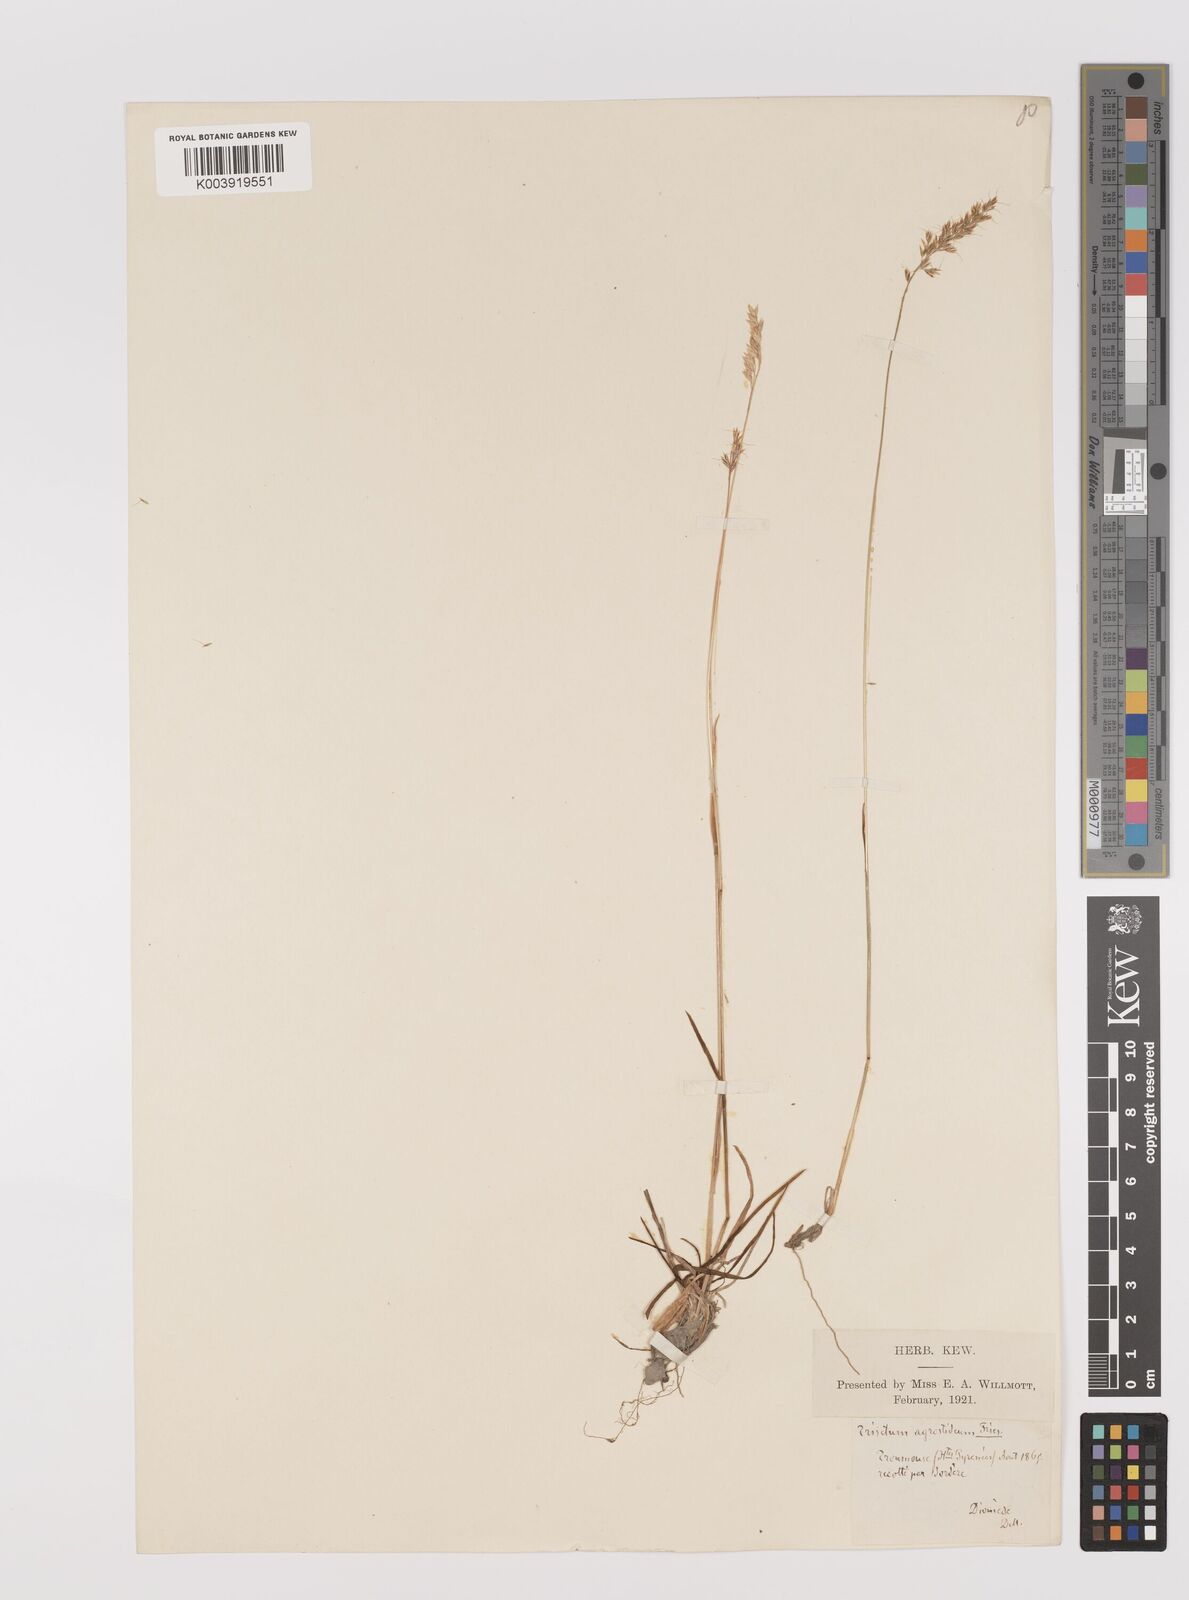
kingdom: Plantae
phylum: Tracheophyta
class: Liliopsida
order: Poales
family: Poaceae
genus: Trisetum
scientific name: Trisetum alpestre
